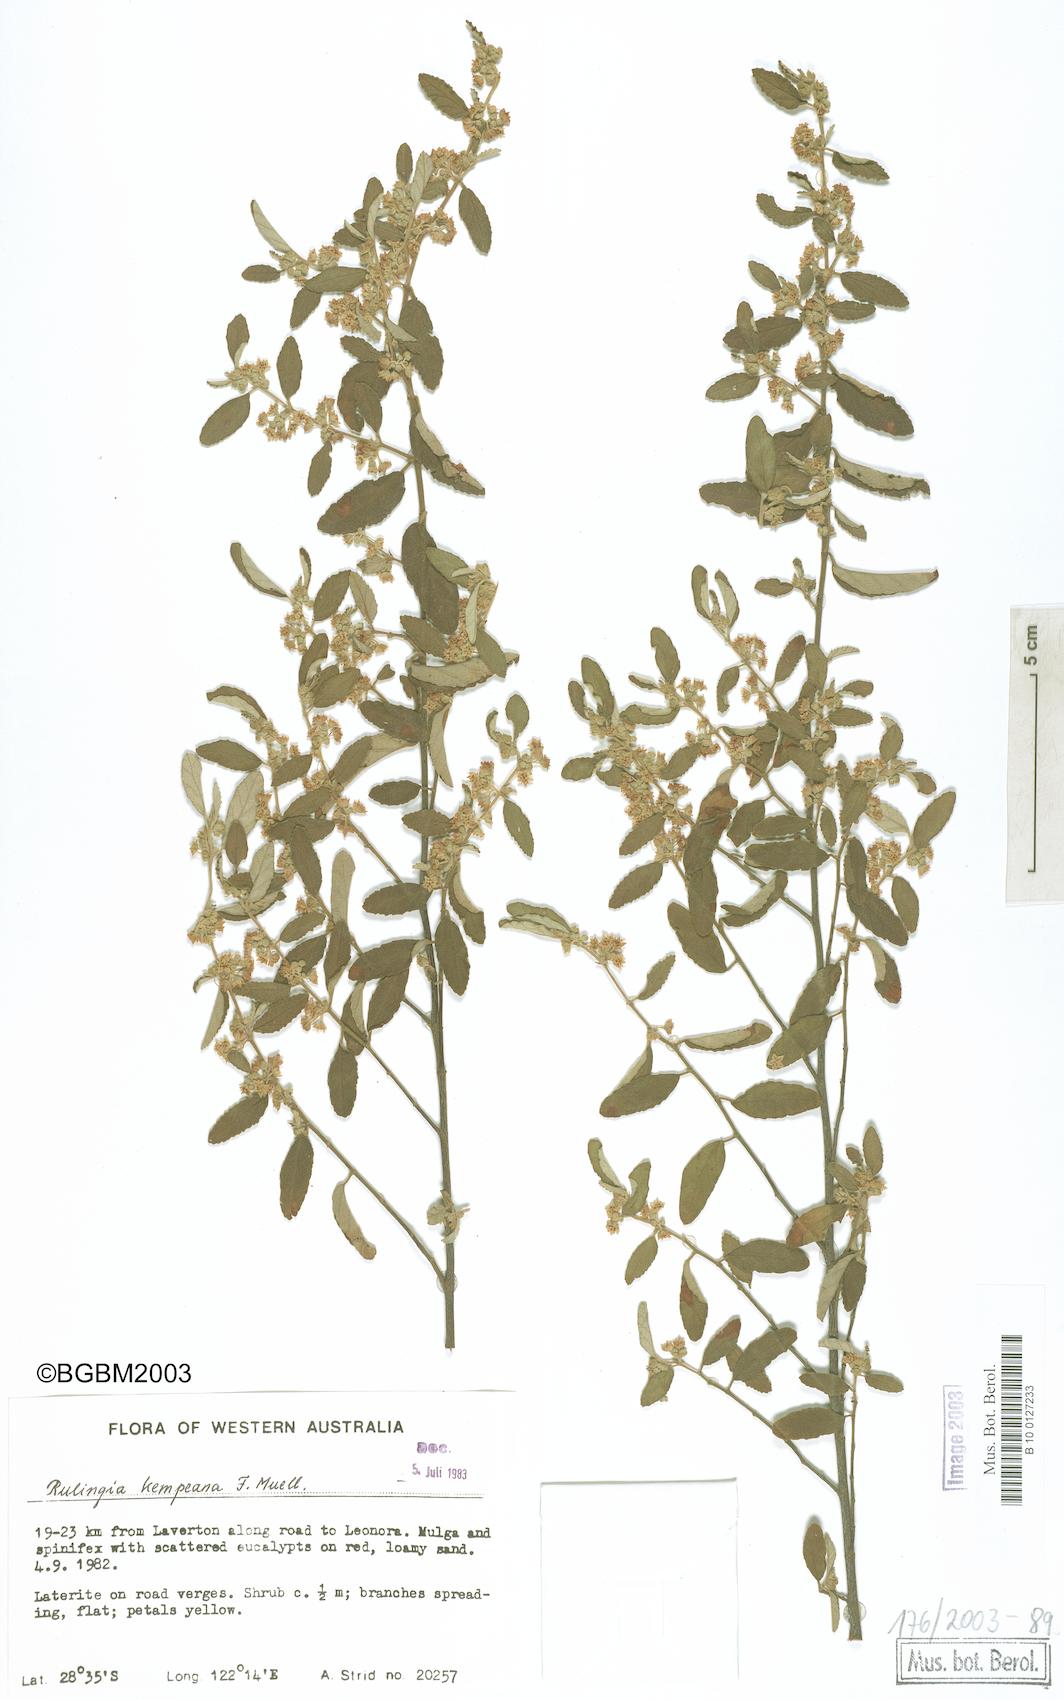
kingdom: Plantae
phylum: Tracheophyta
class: Magnoliopsida
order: Malvales
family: Malvaceae
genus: Androcalva
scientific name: Androcalva loxophylla
